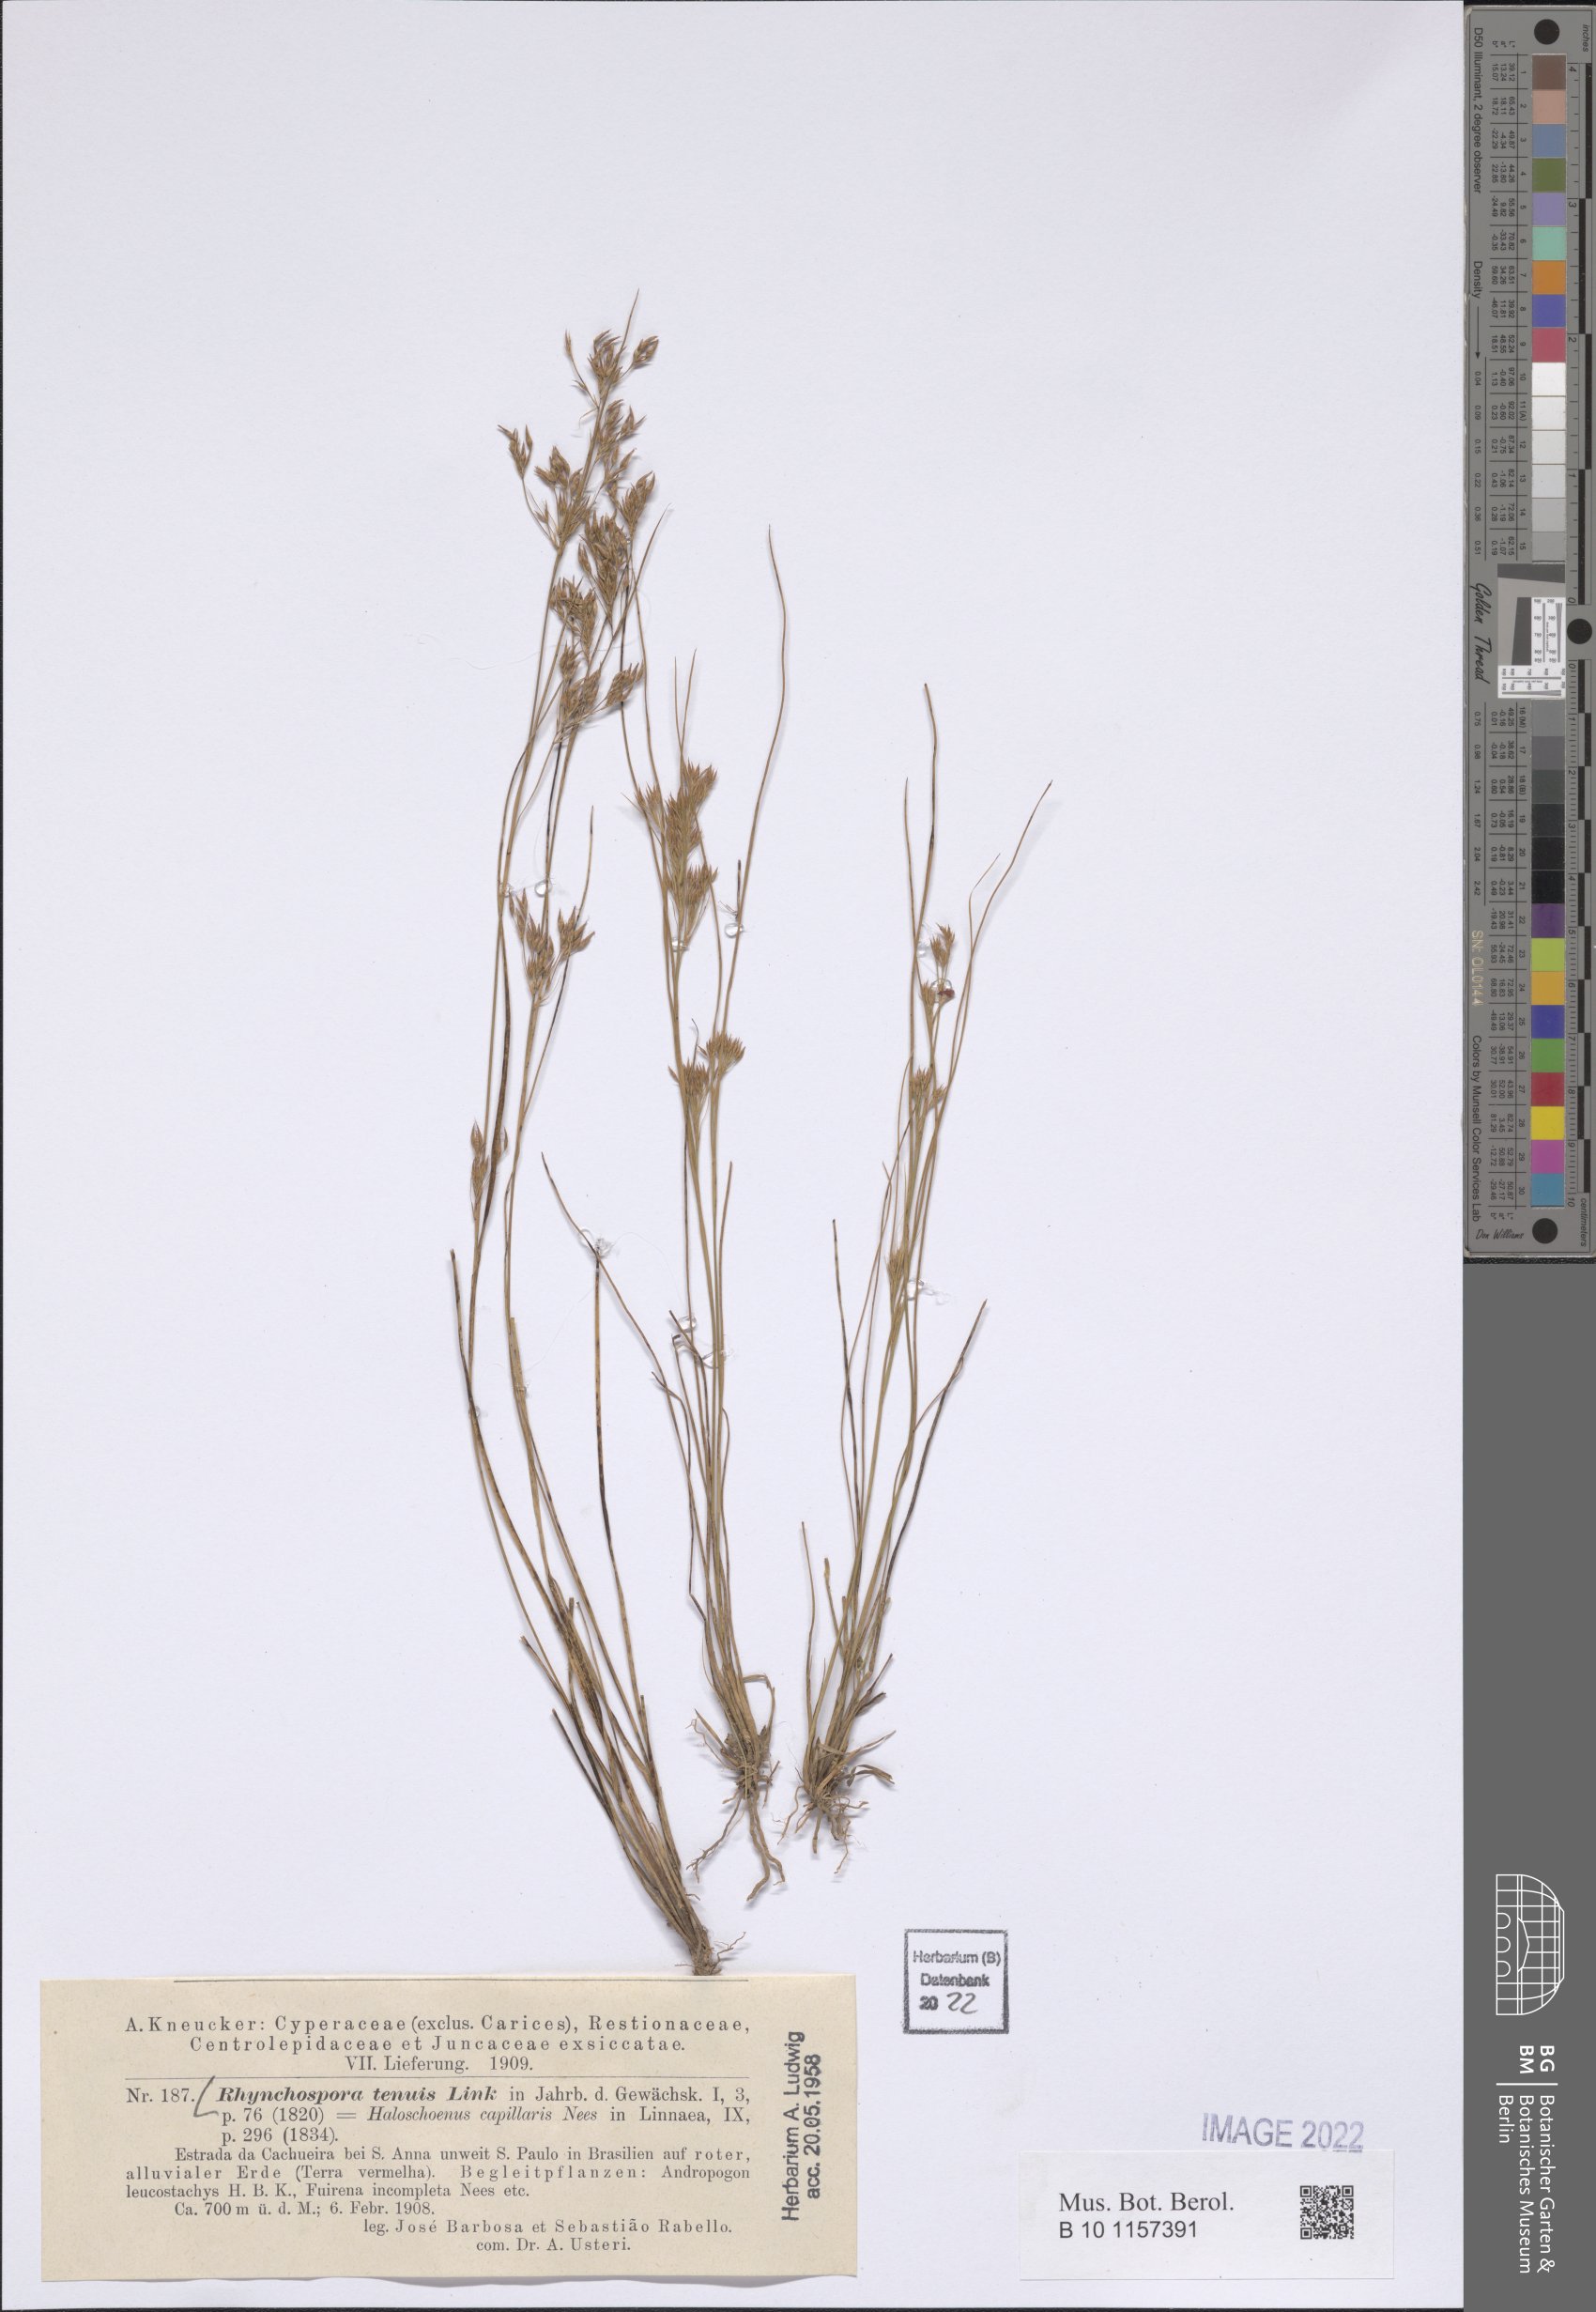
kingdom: Plantae
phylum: Tracheophyta
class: Liliopsida
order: Poales
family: Cyperaceae
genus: Rhynchospora
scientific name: Rhynchospora tenuis
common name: Quill beaksedge
